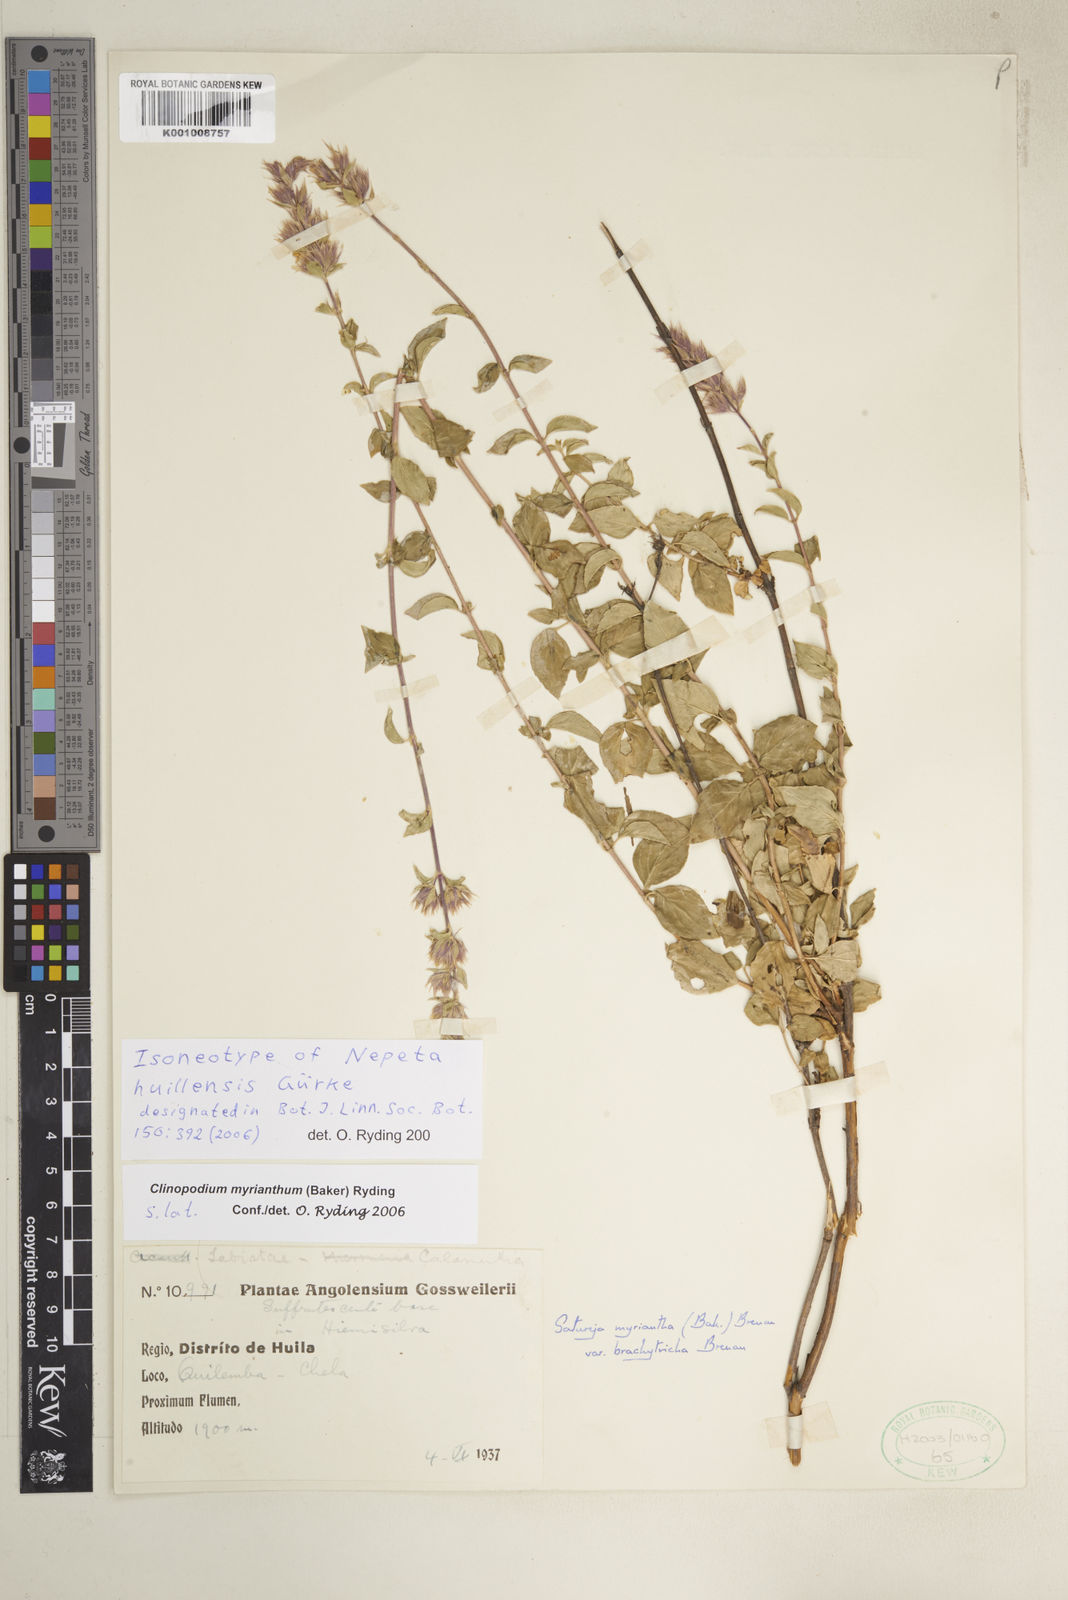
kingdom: Plantae
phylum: Tracheophyta
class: Magnoliopsida
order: Lamiales
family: Lamiaceae
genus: Clinopodium
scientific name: Clinopodium myrianthum
